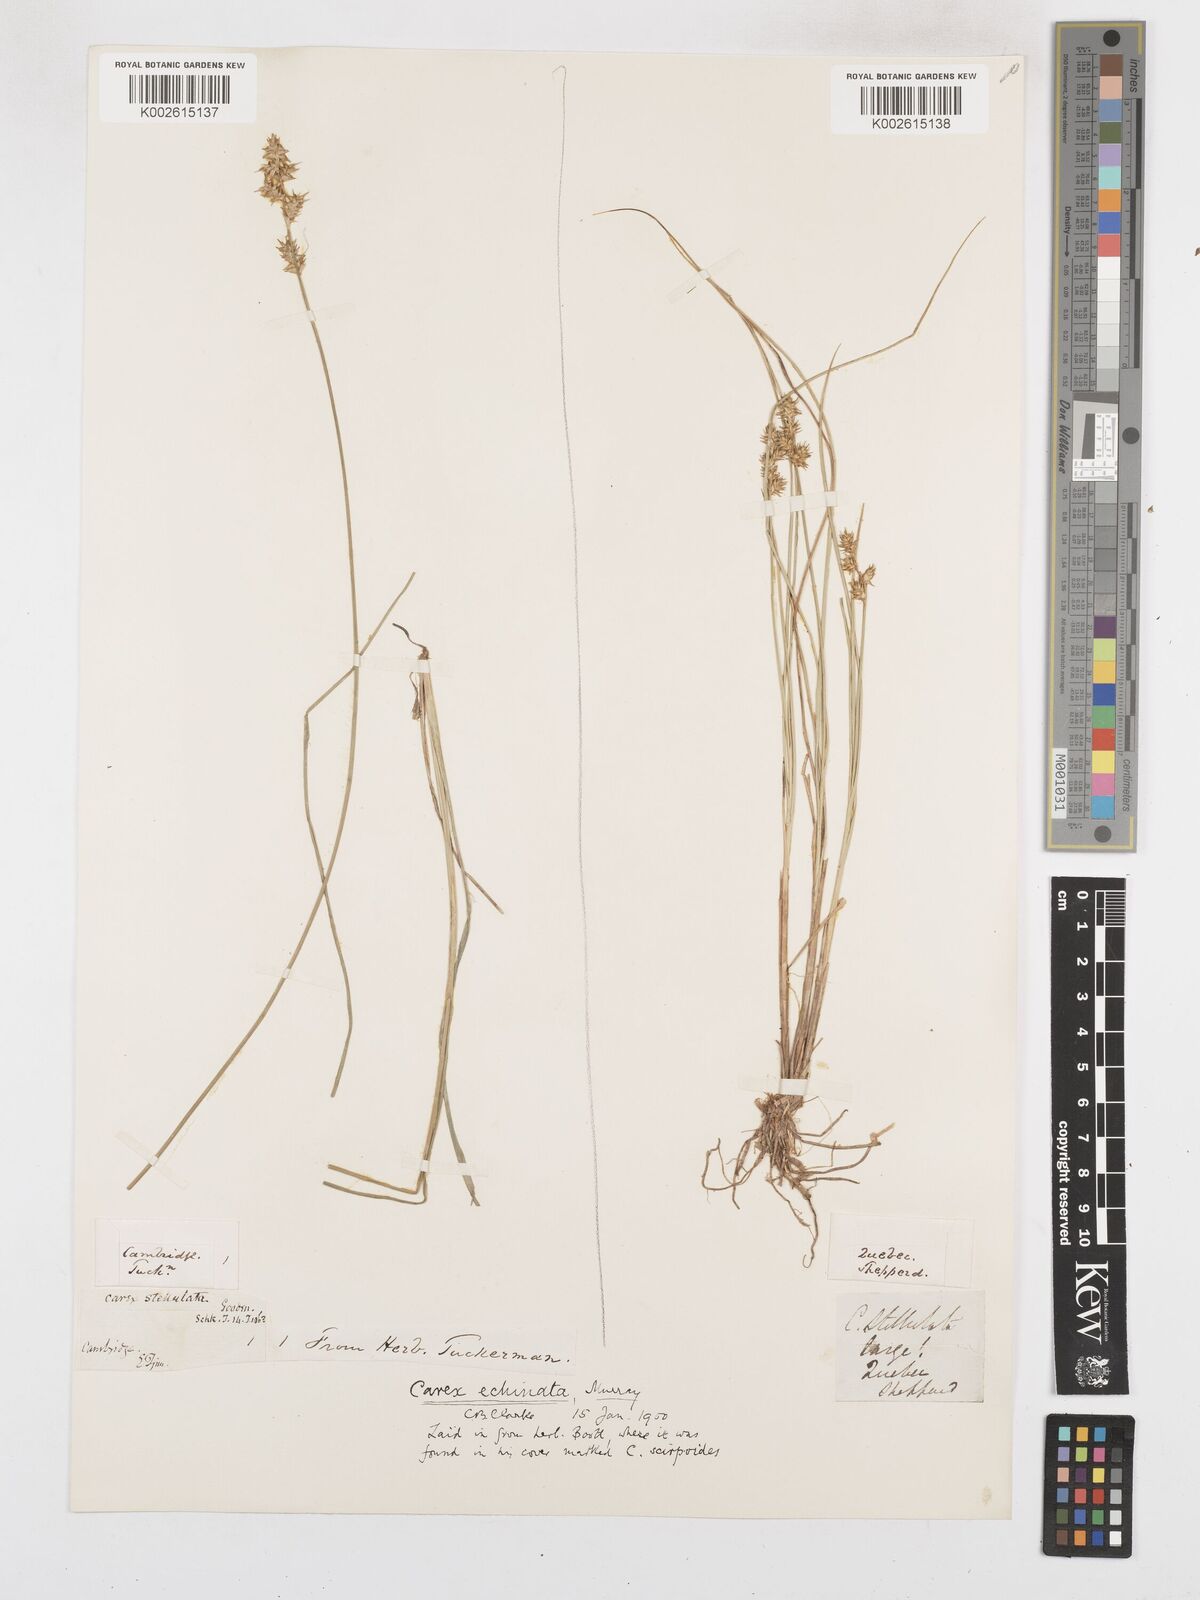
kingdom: Plantae
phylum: Tracheophyta
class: Liliopsida
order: Poales
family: Cyperaceae
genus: Carex
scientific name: Carex echinata
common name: Star sedge
